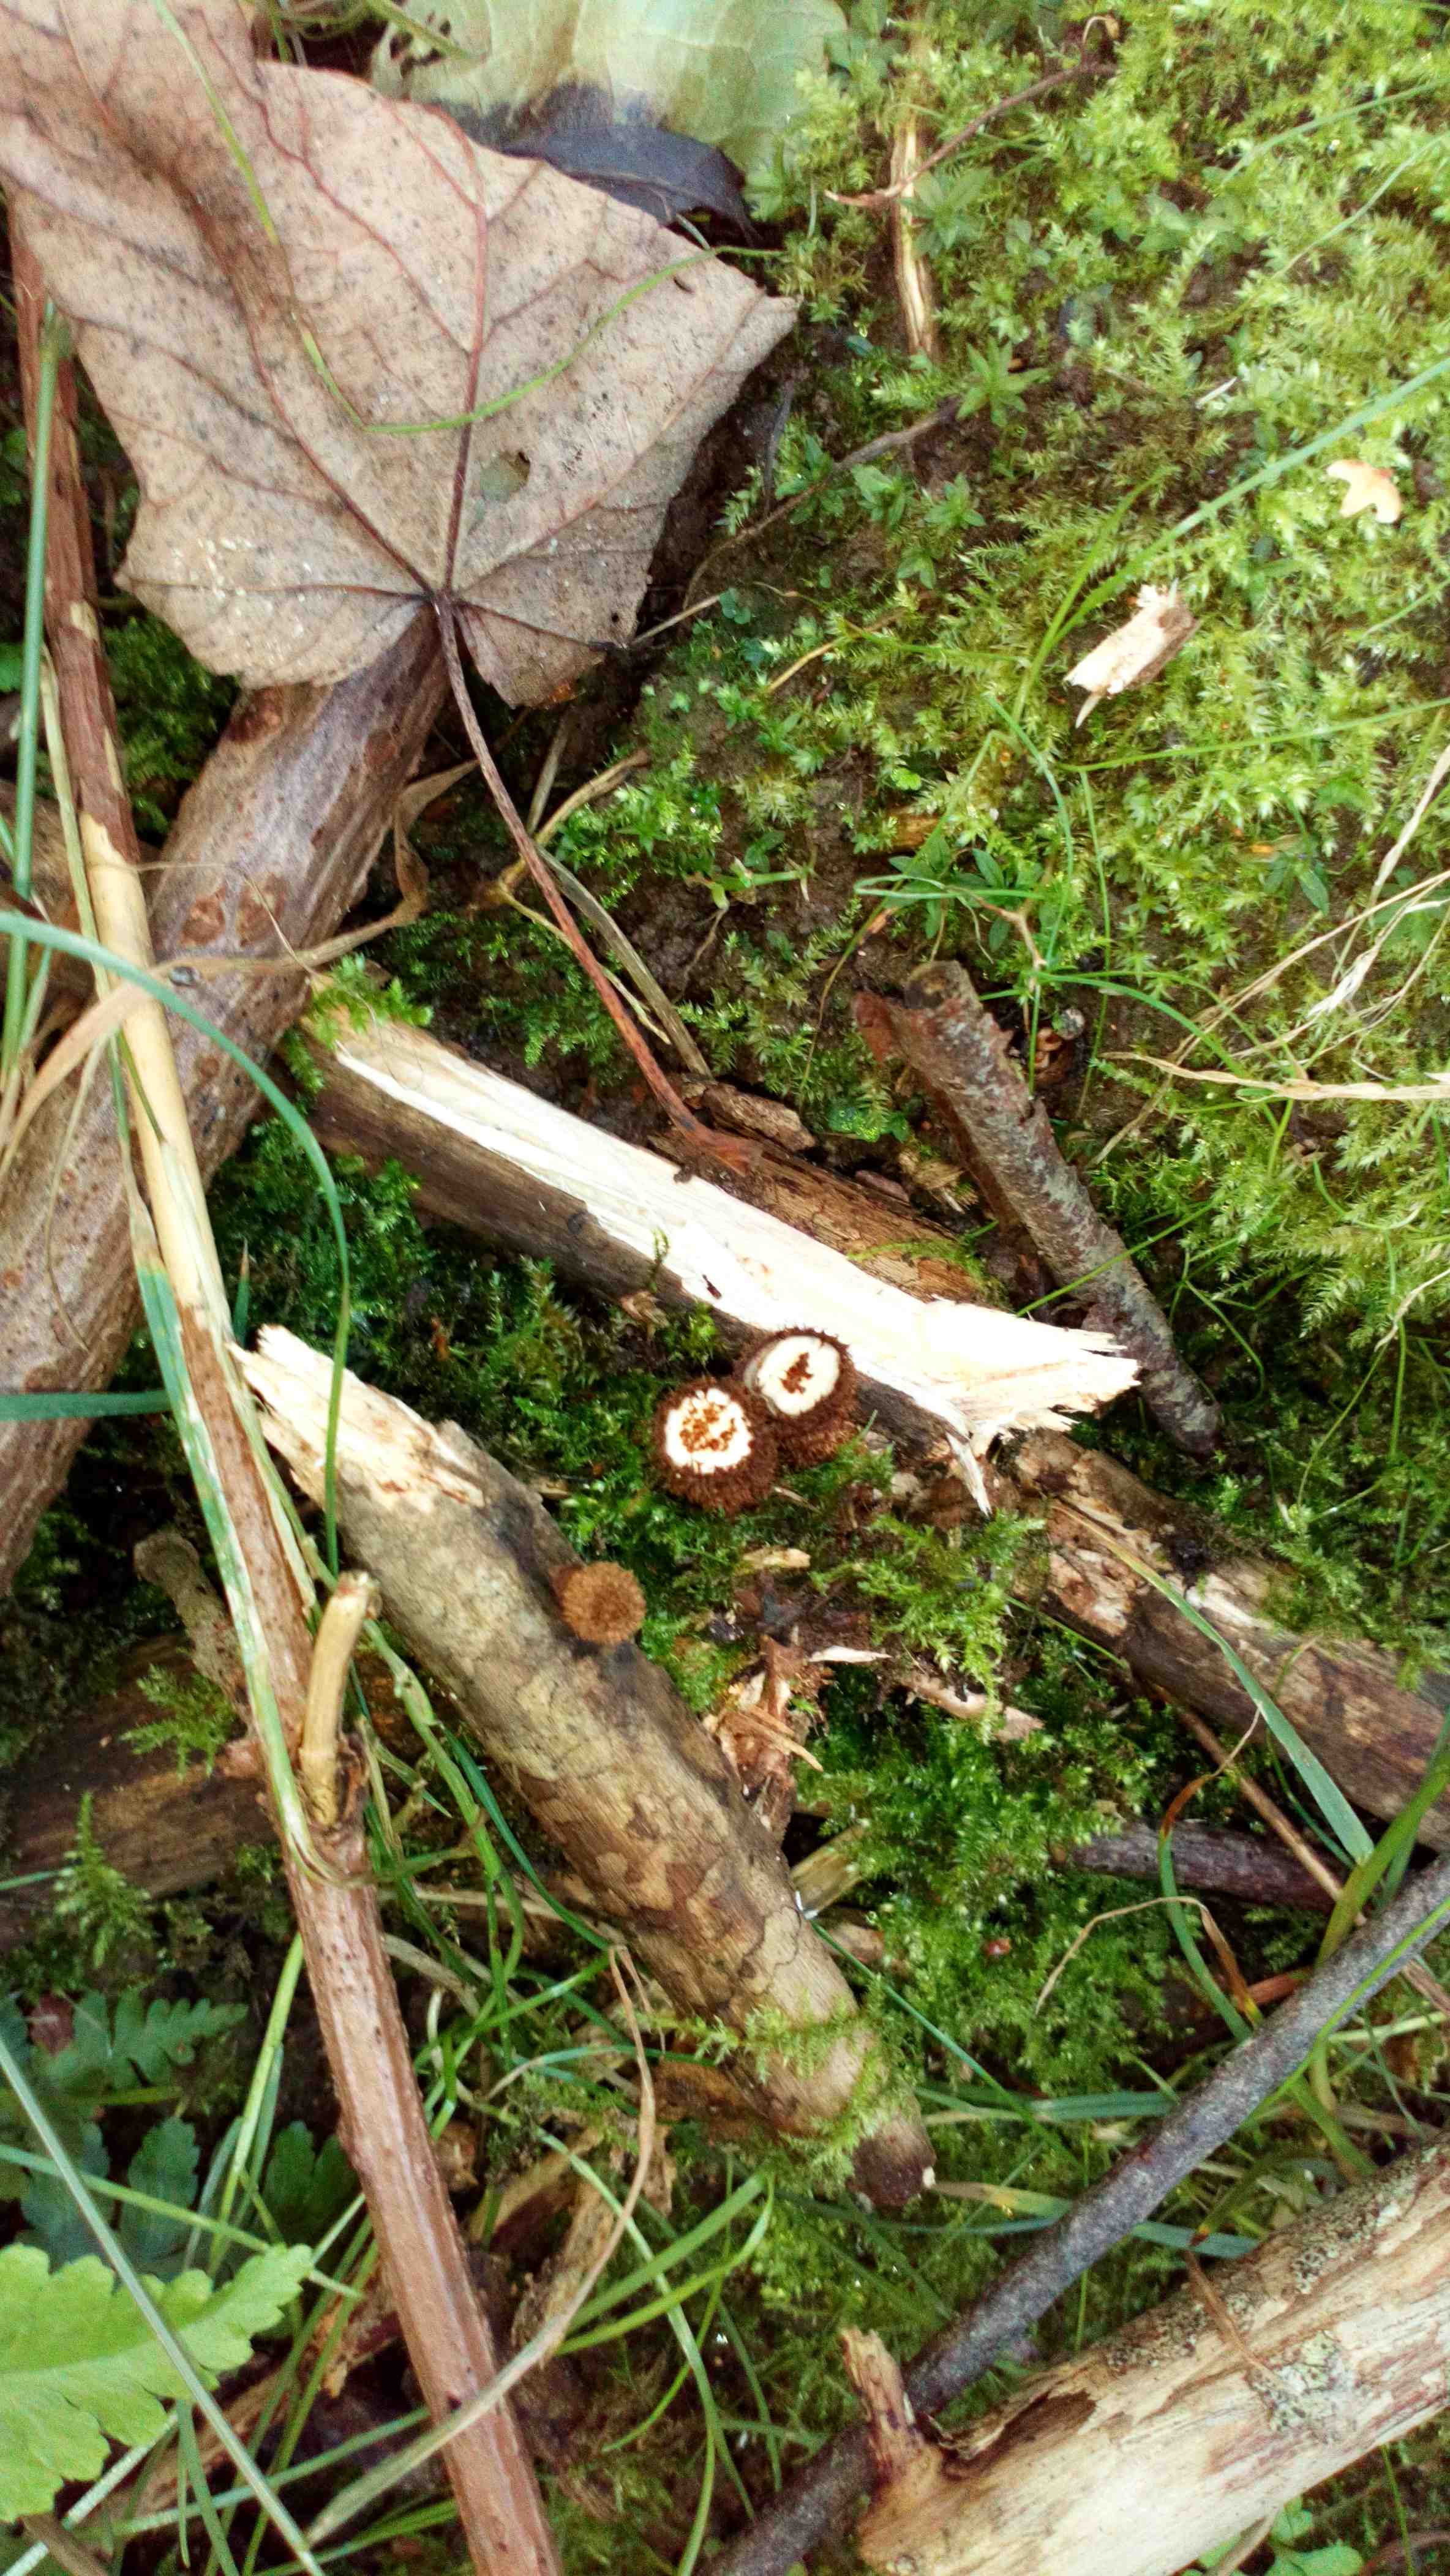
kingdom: Fungi
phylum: Basidiomycota
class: Agaricomycetes
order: Agaricales
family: Agaricaceae
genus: Cyathus
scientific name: Cyathus striatus
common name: stribet redesvamp
